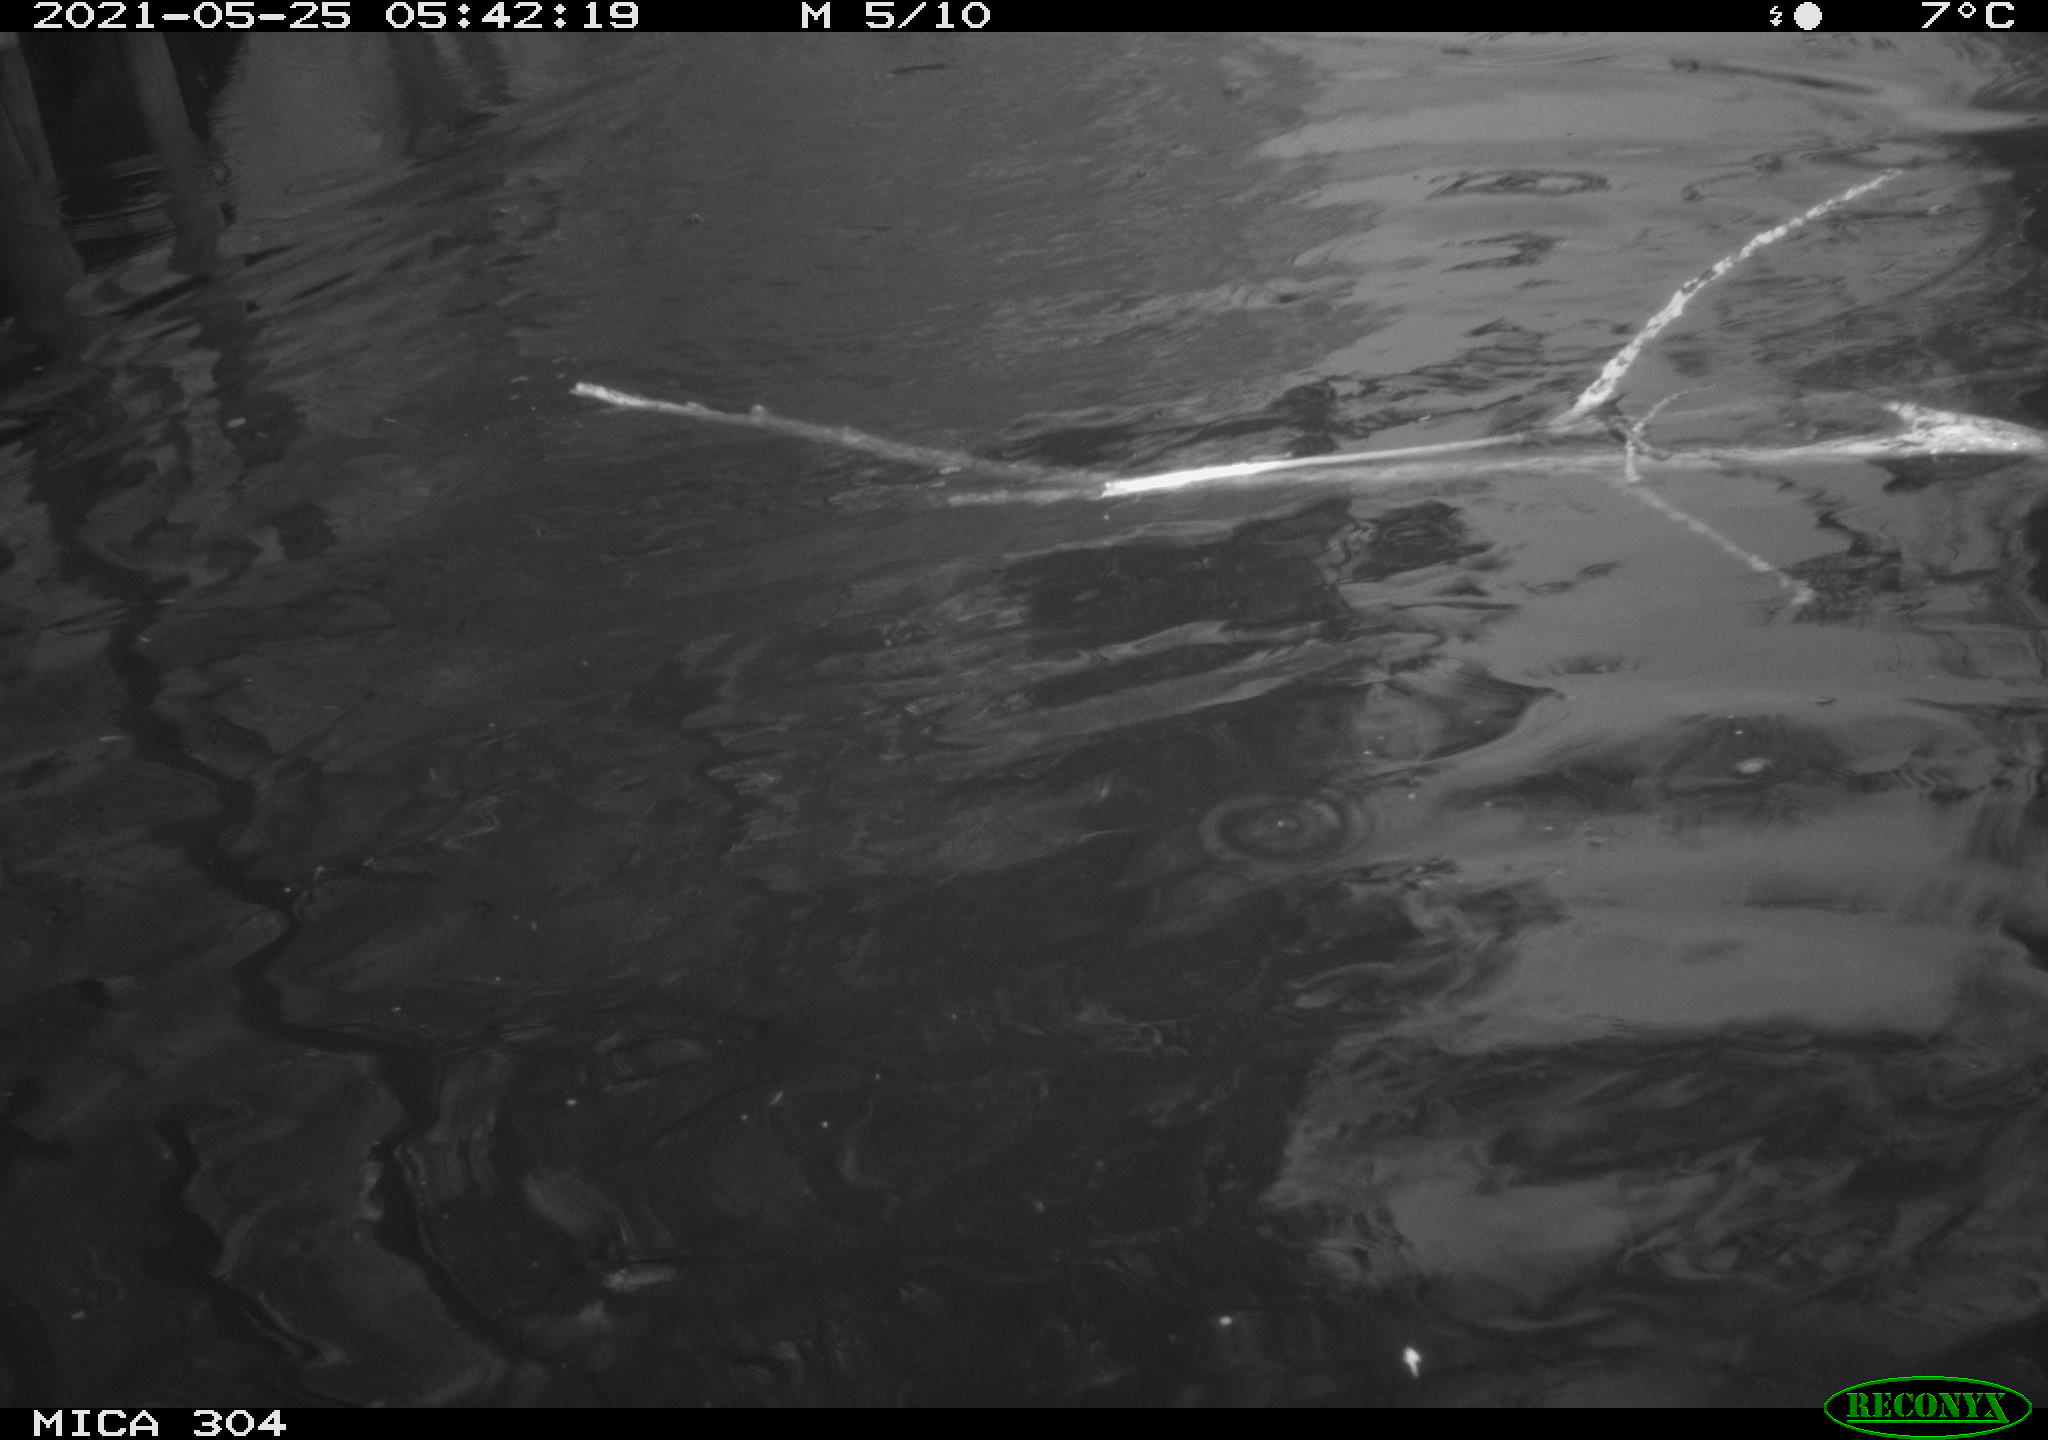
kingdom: Animalia
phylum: Chordata
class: Aves
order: Anseriformes
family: Anatidae
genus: Anas
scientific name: Anas platyrhynchos
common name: Mallard
